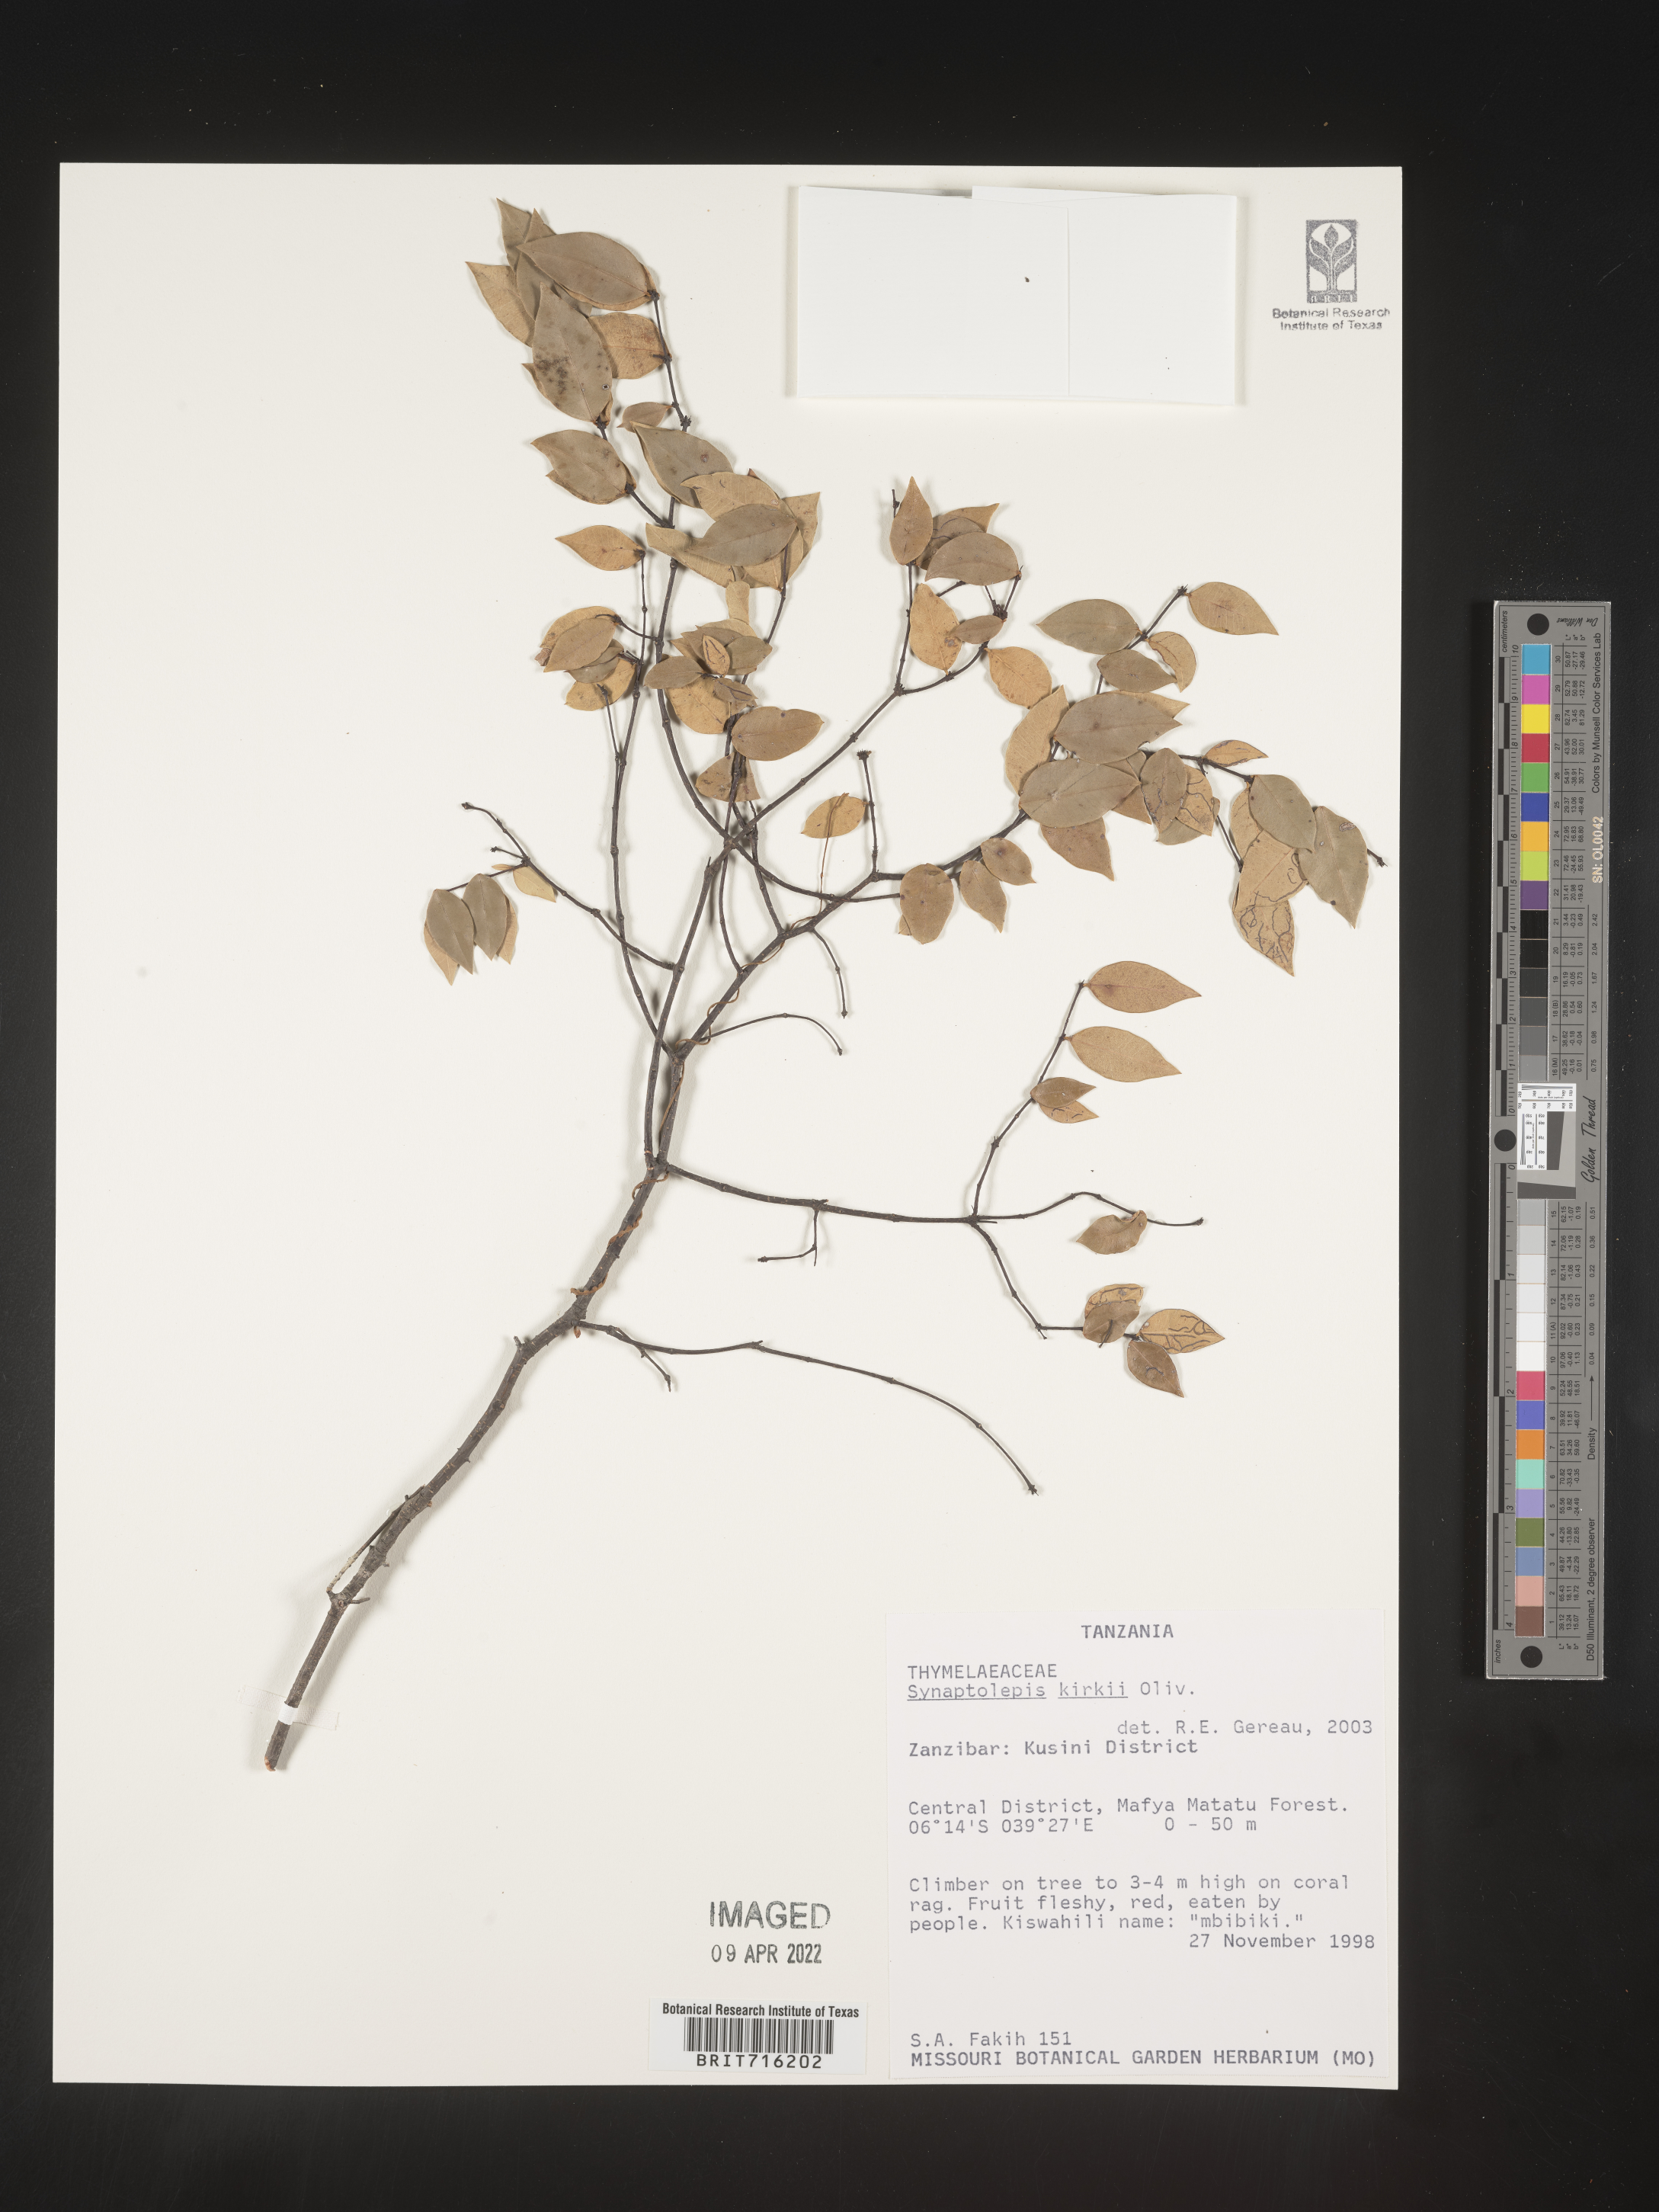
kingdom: Plantae
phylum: Tracheophyta
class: Magnoliopsida
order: Malvales
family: Thymelaeaceae
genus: Synaptolepis
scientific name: Synaptolepis
